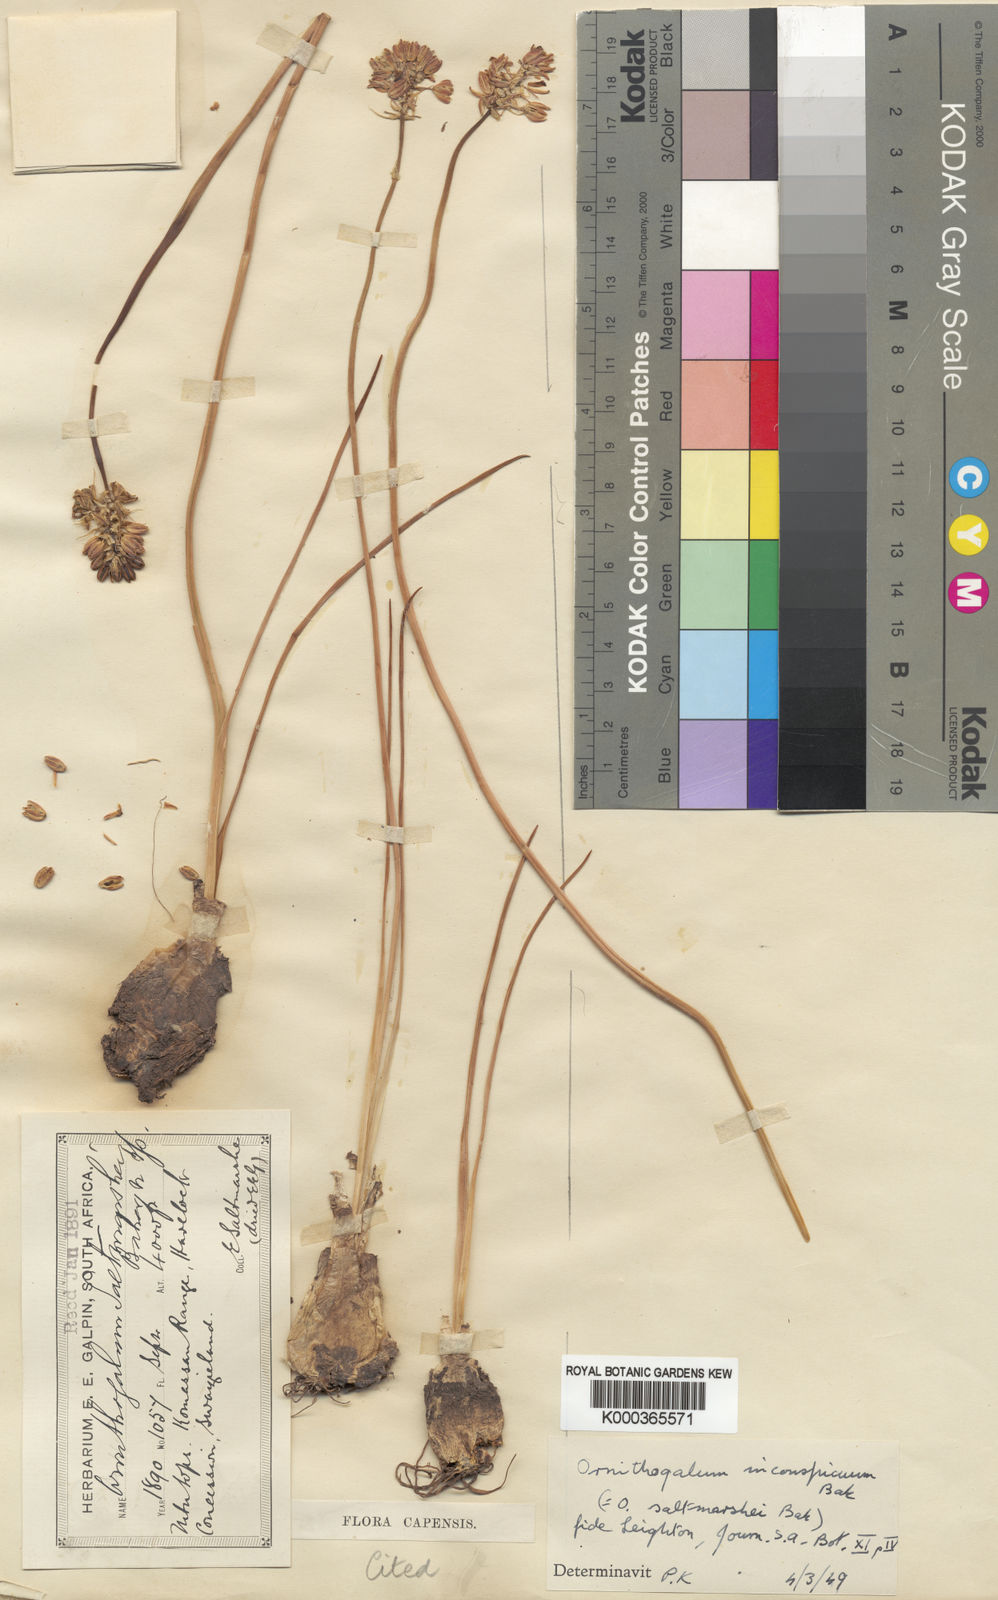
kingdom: Plantae
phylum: Tracheophyta
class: Liliopsida
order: Asparagales
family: Asparagaceae
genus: Ornithogalum
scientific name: Ornithogalum
